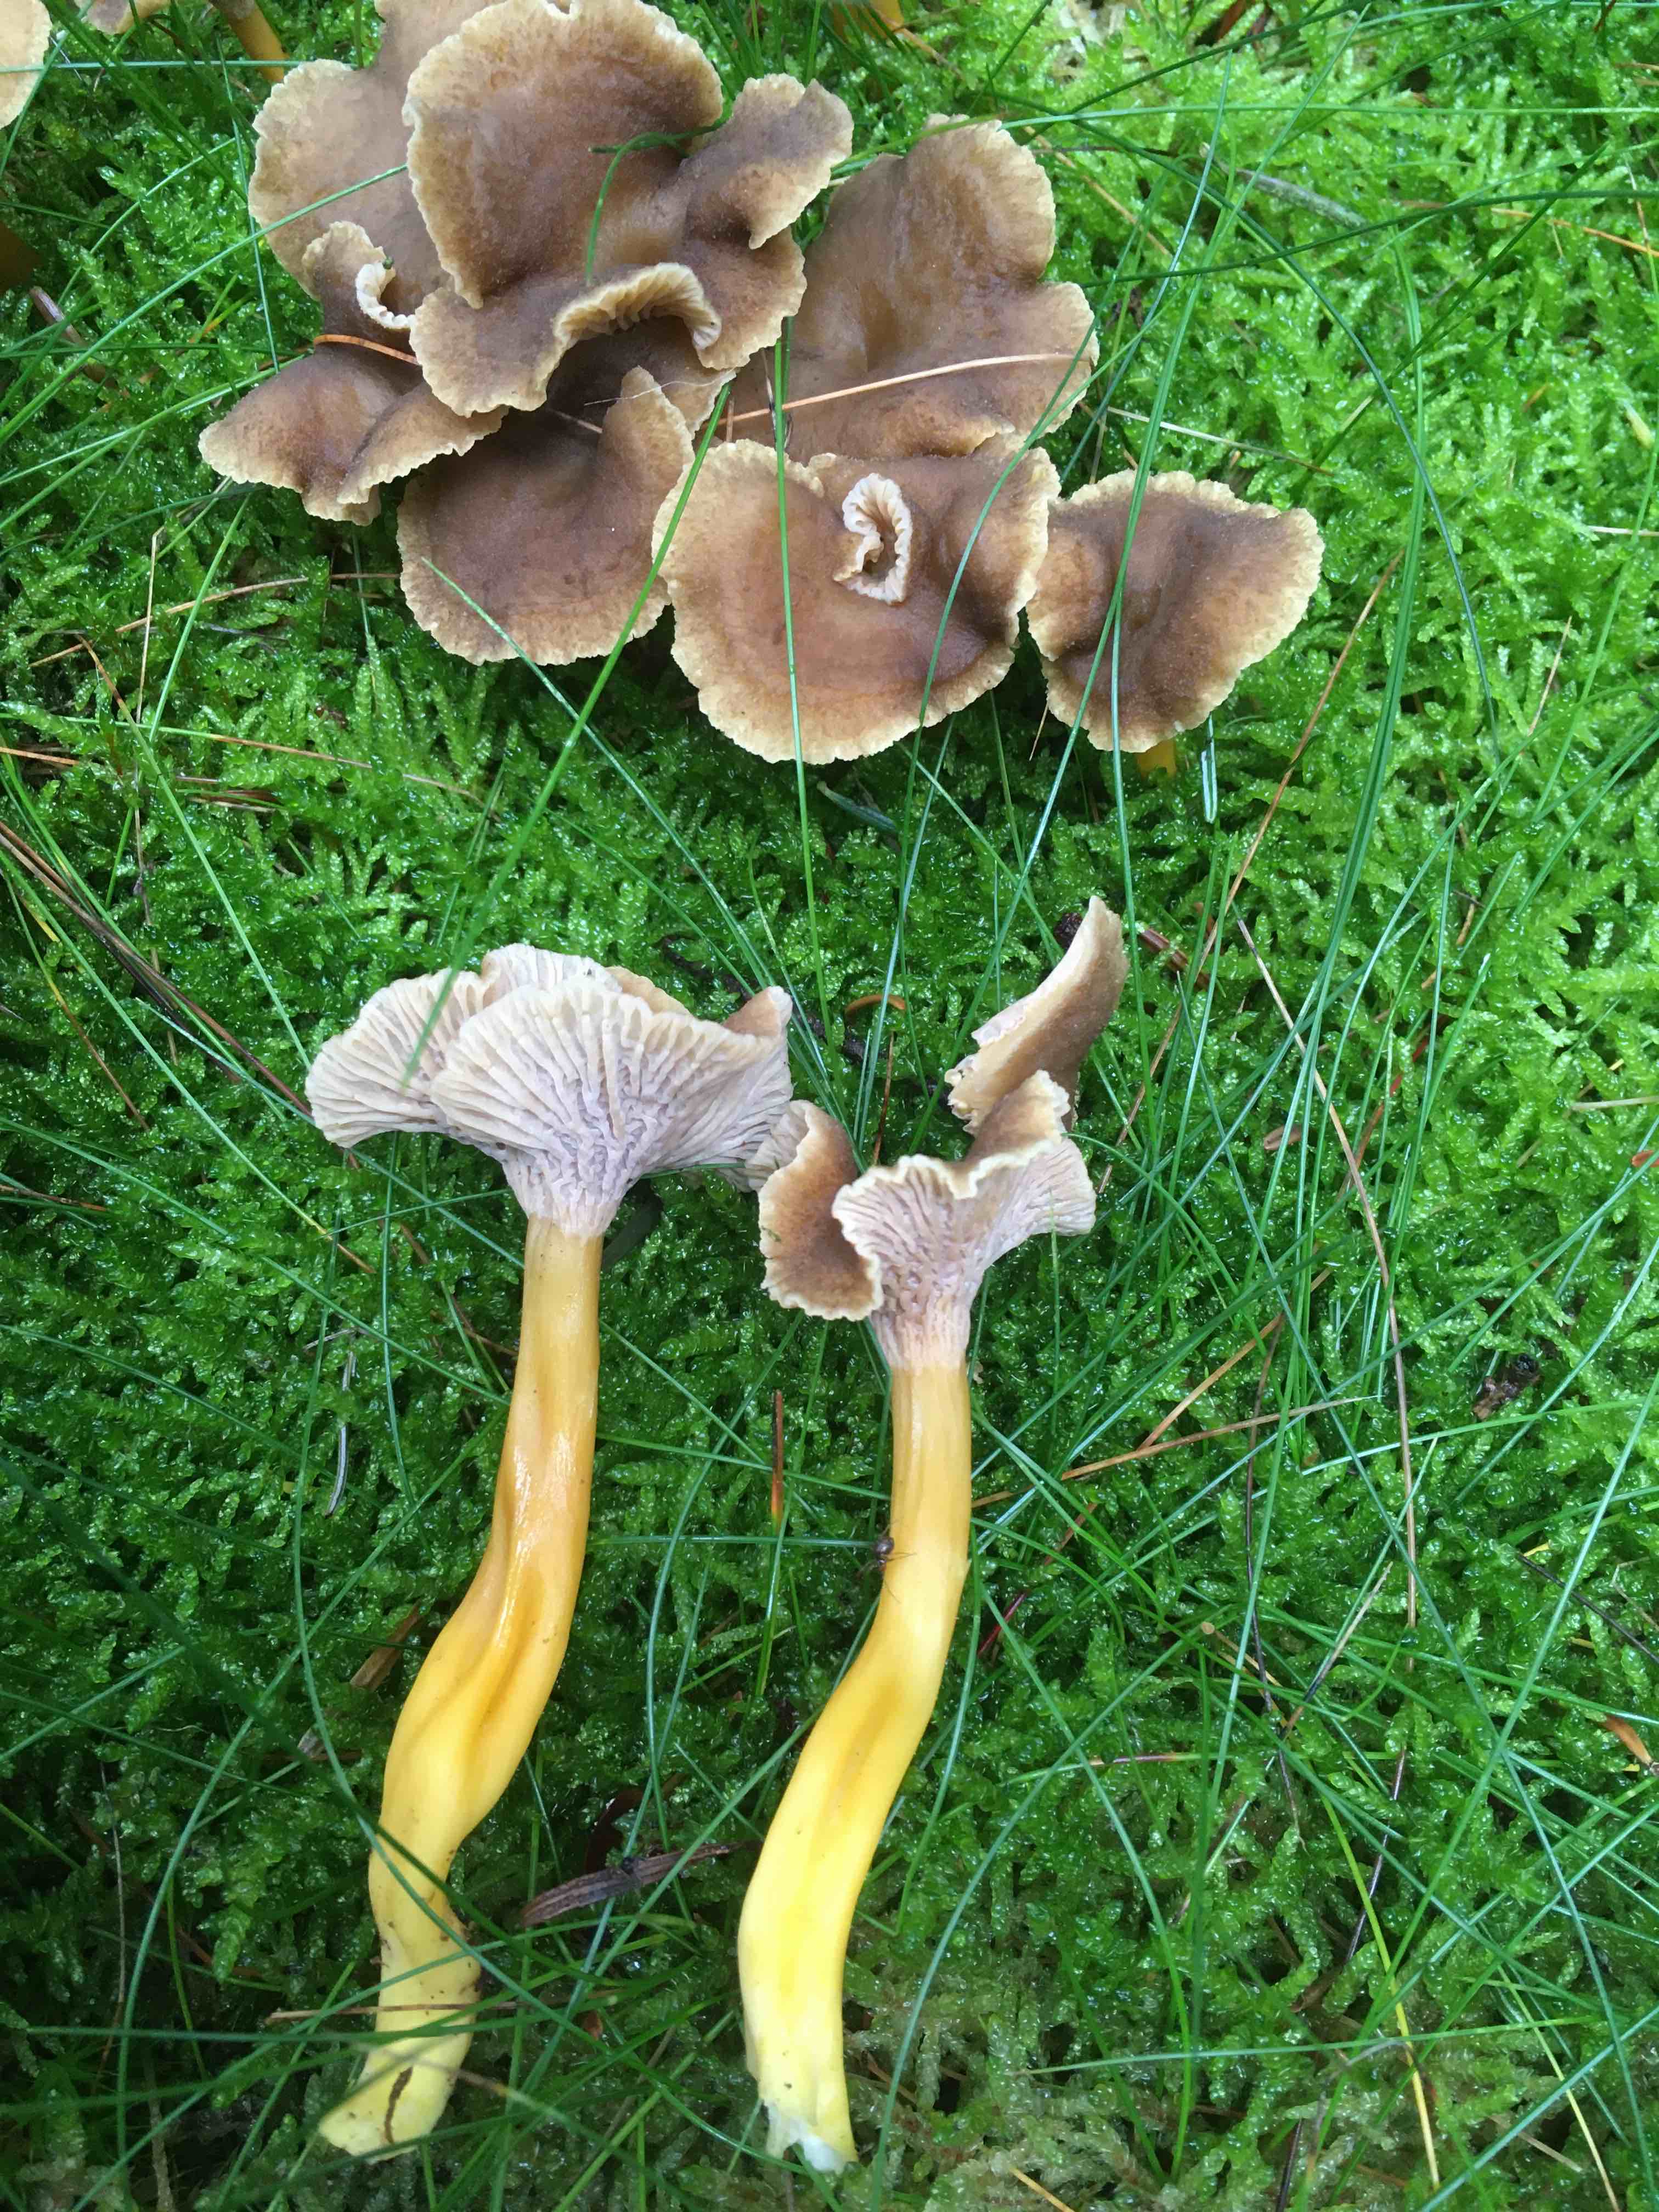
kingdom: Fungi
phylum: Basidiomycota
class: Agaricomycetes
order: Cantharellales
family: Hydnaceae
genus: Craterellus
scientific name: Craterellus tubaeformis
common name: tragt-kantarel
